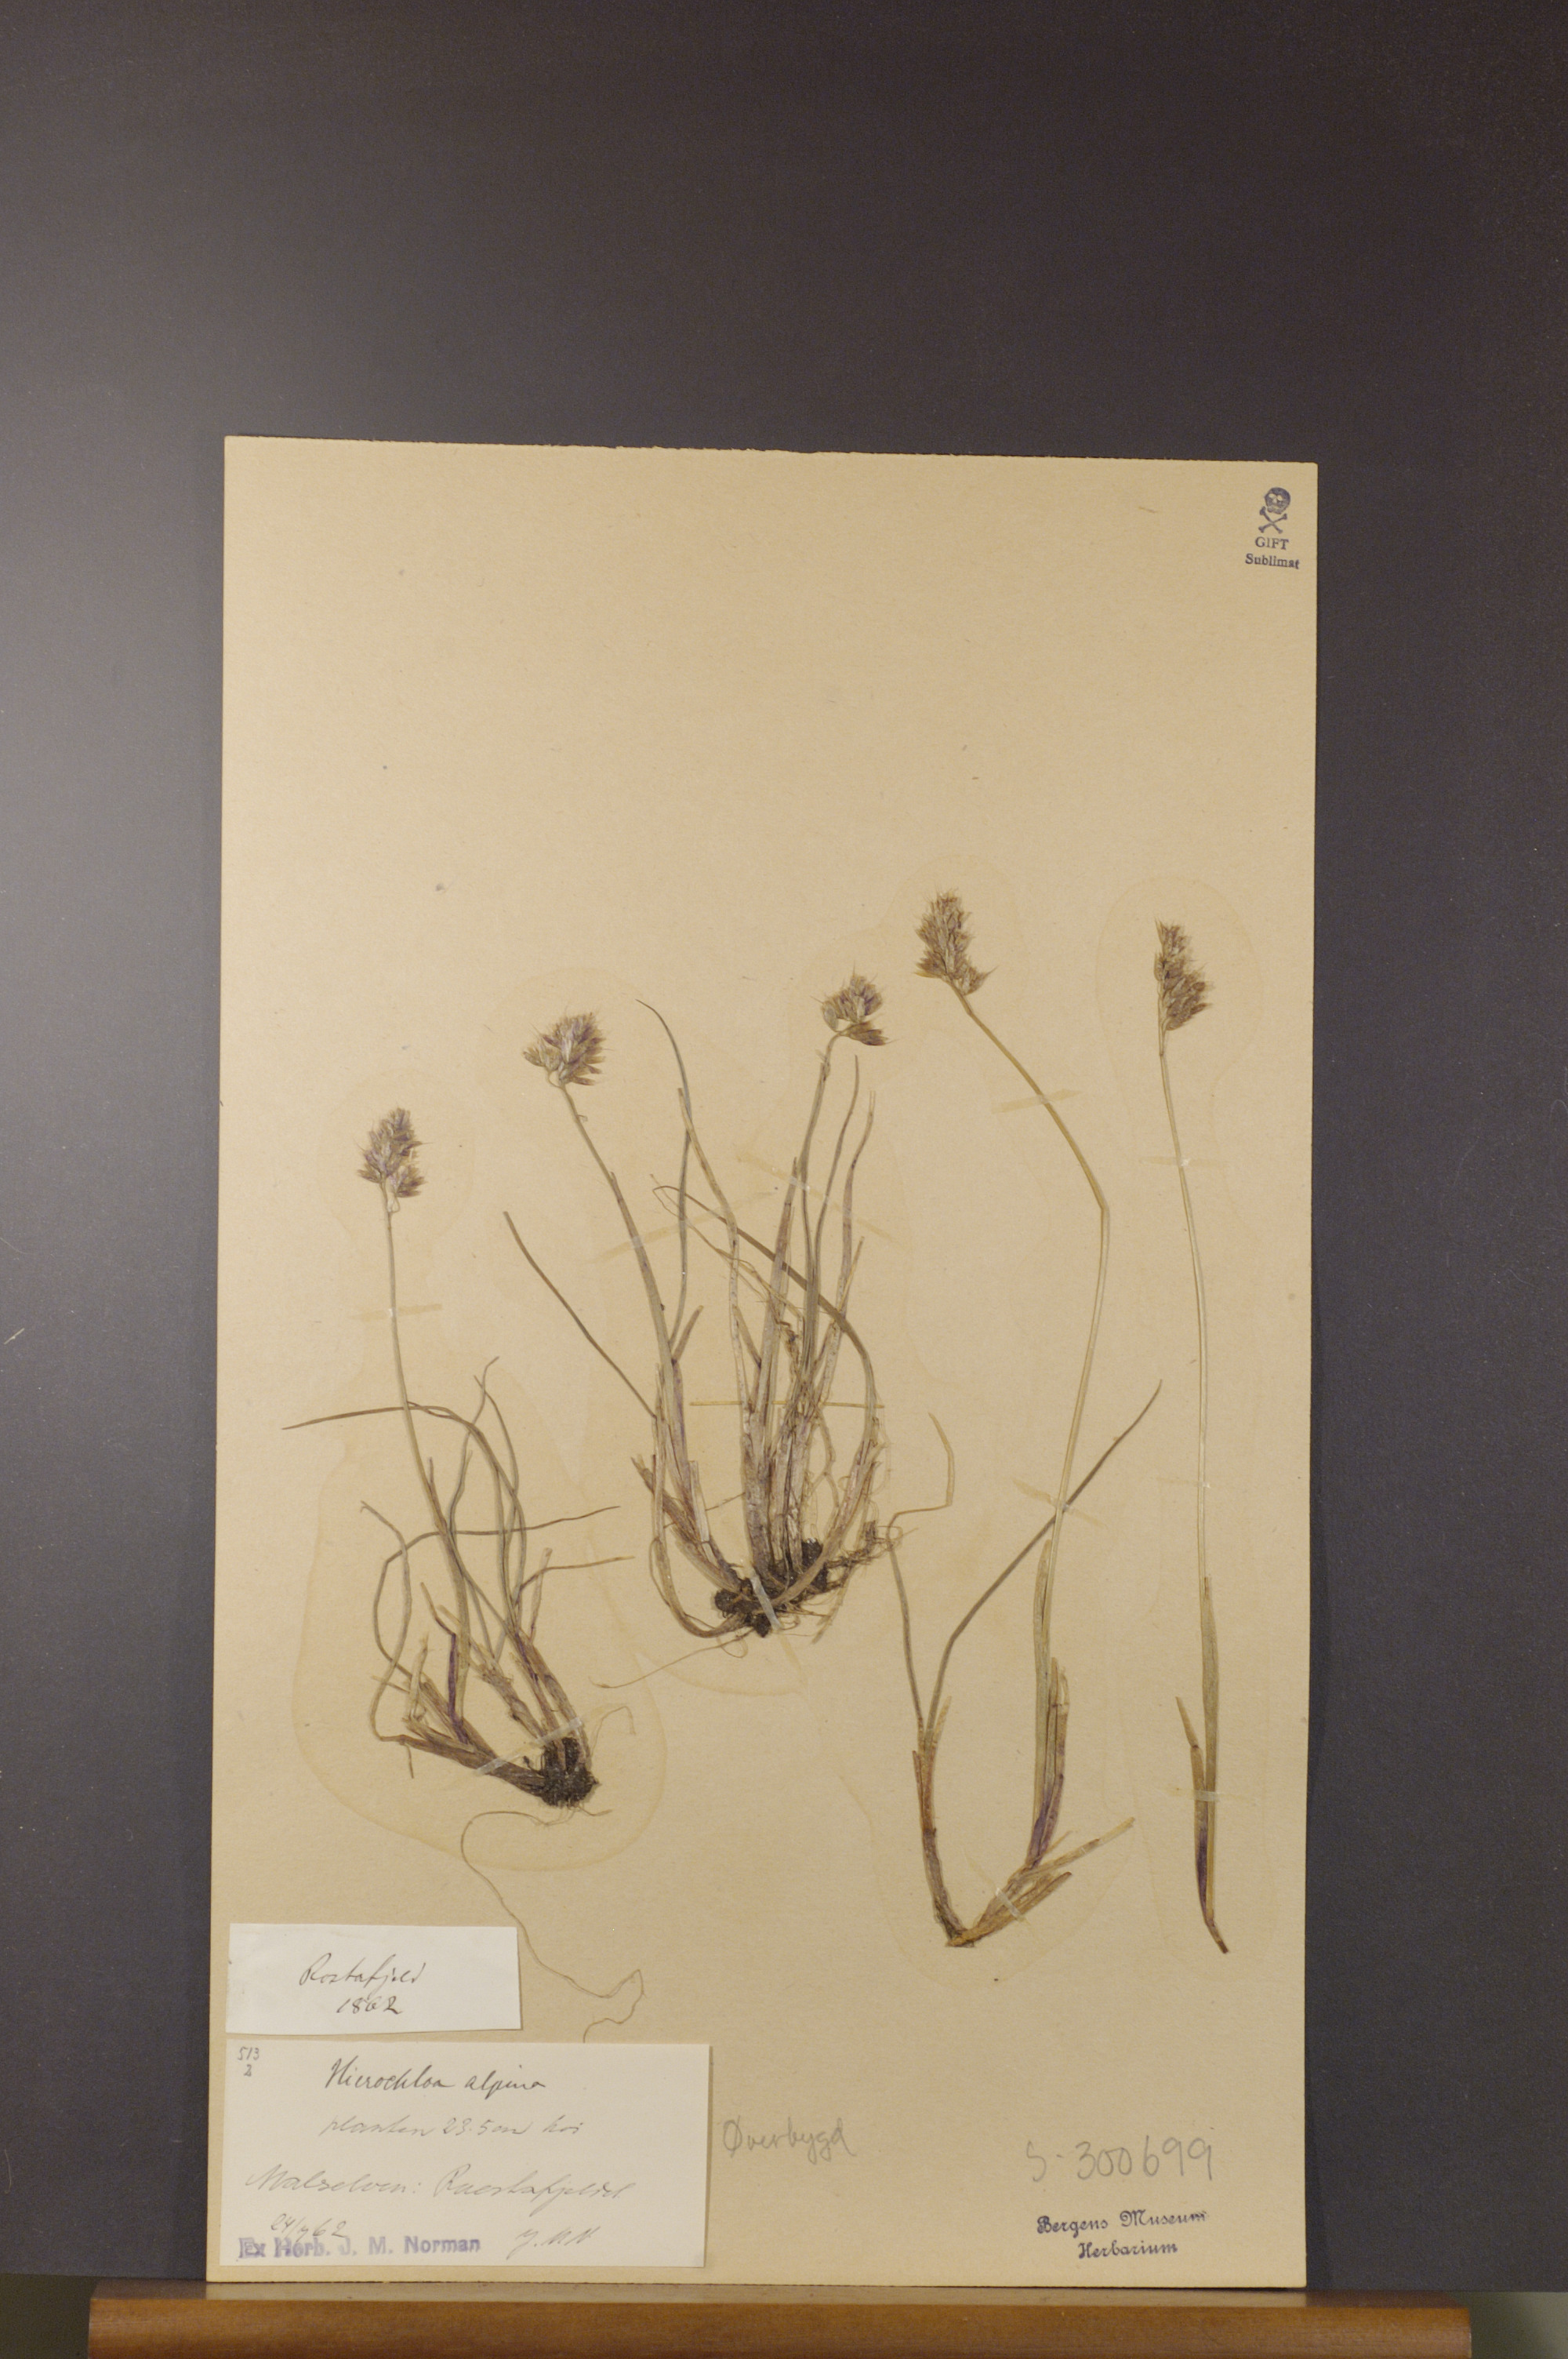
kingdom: Plantae
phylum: Tracheophyta
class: Liliopsida
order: Poales
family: Poaceae
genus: Anthoxanthum
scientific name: Anthoxanthum monticola
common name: Alpine sweetgrass
